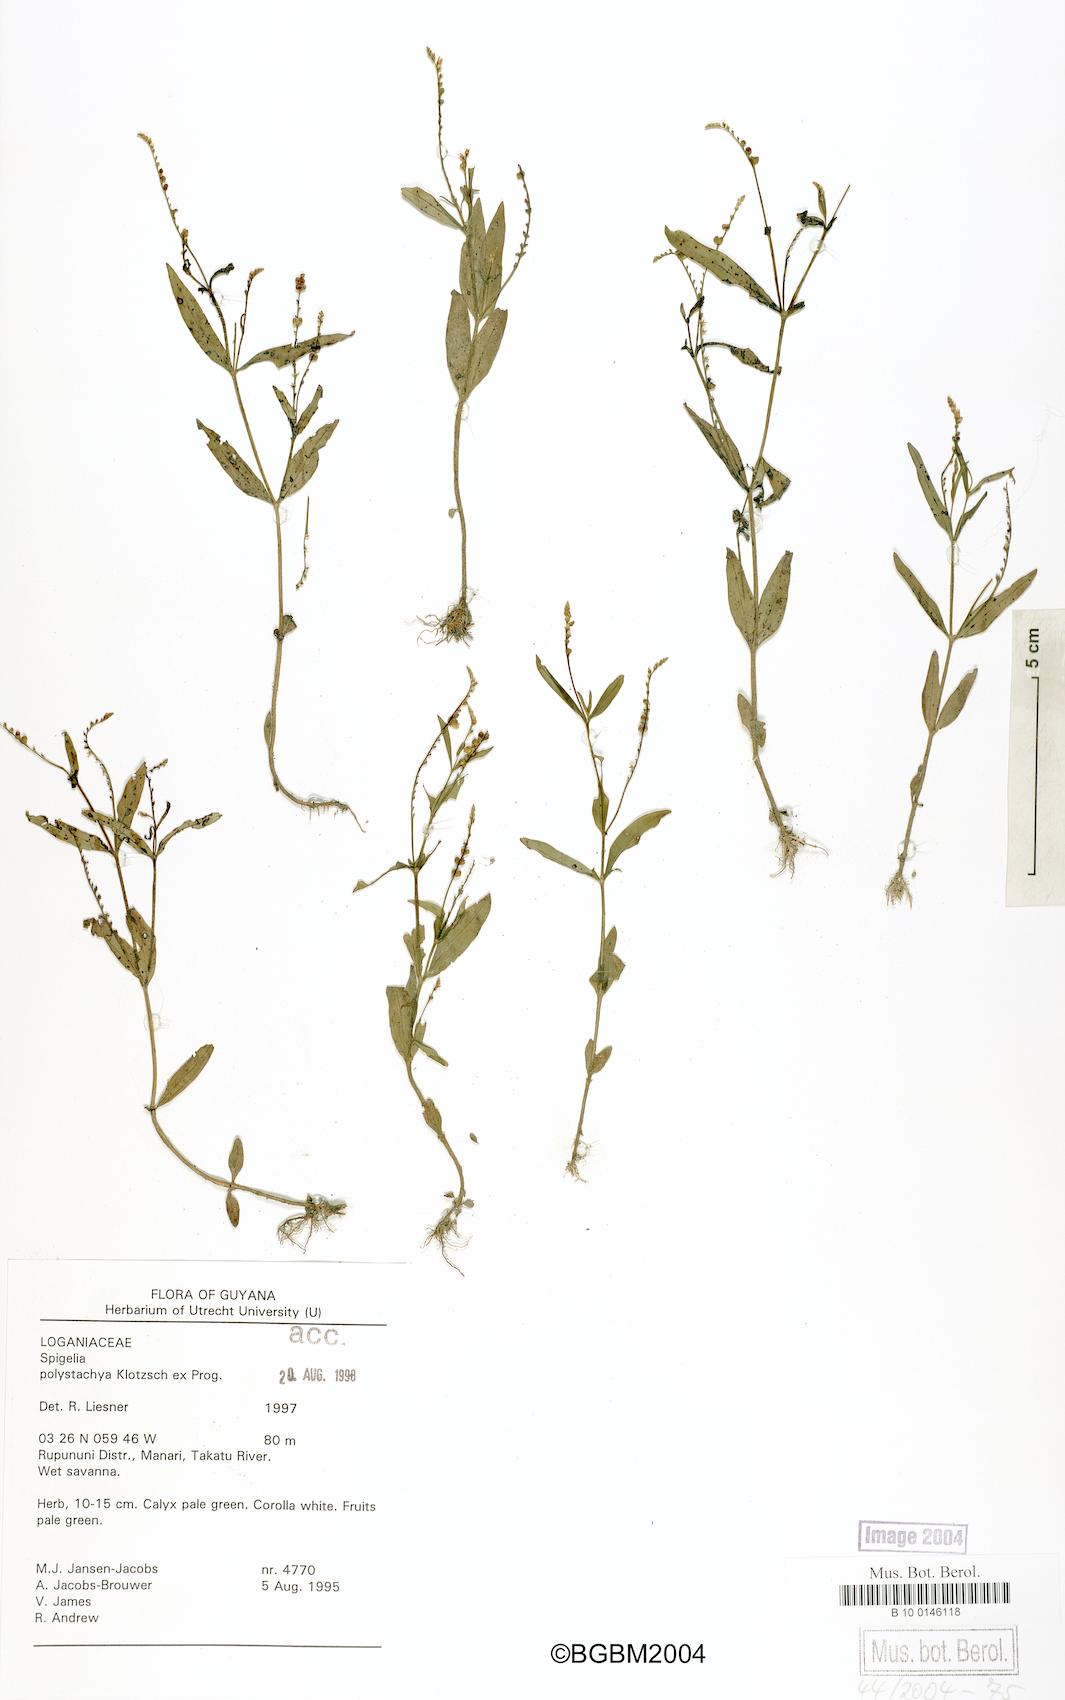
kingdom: Plantae
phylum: Tracheophyta
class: Magnoliopsida
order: Gentianales
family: Loganiaceae
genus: Spigelia
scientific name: Spigelia polystachya
